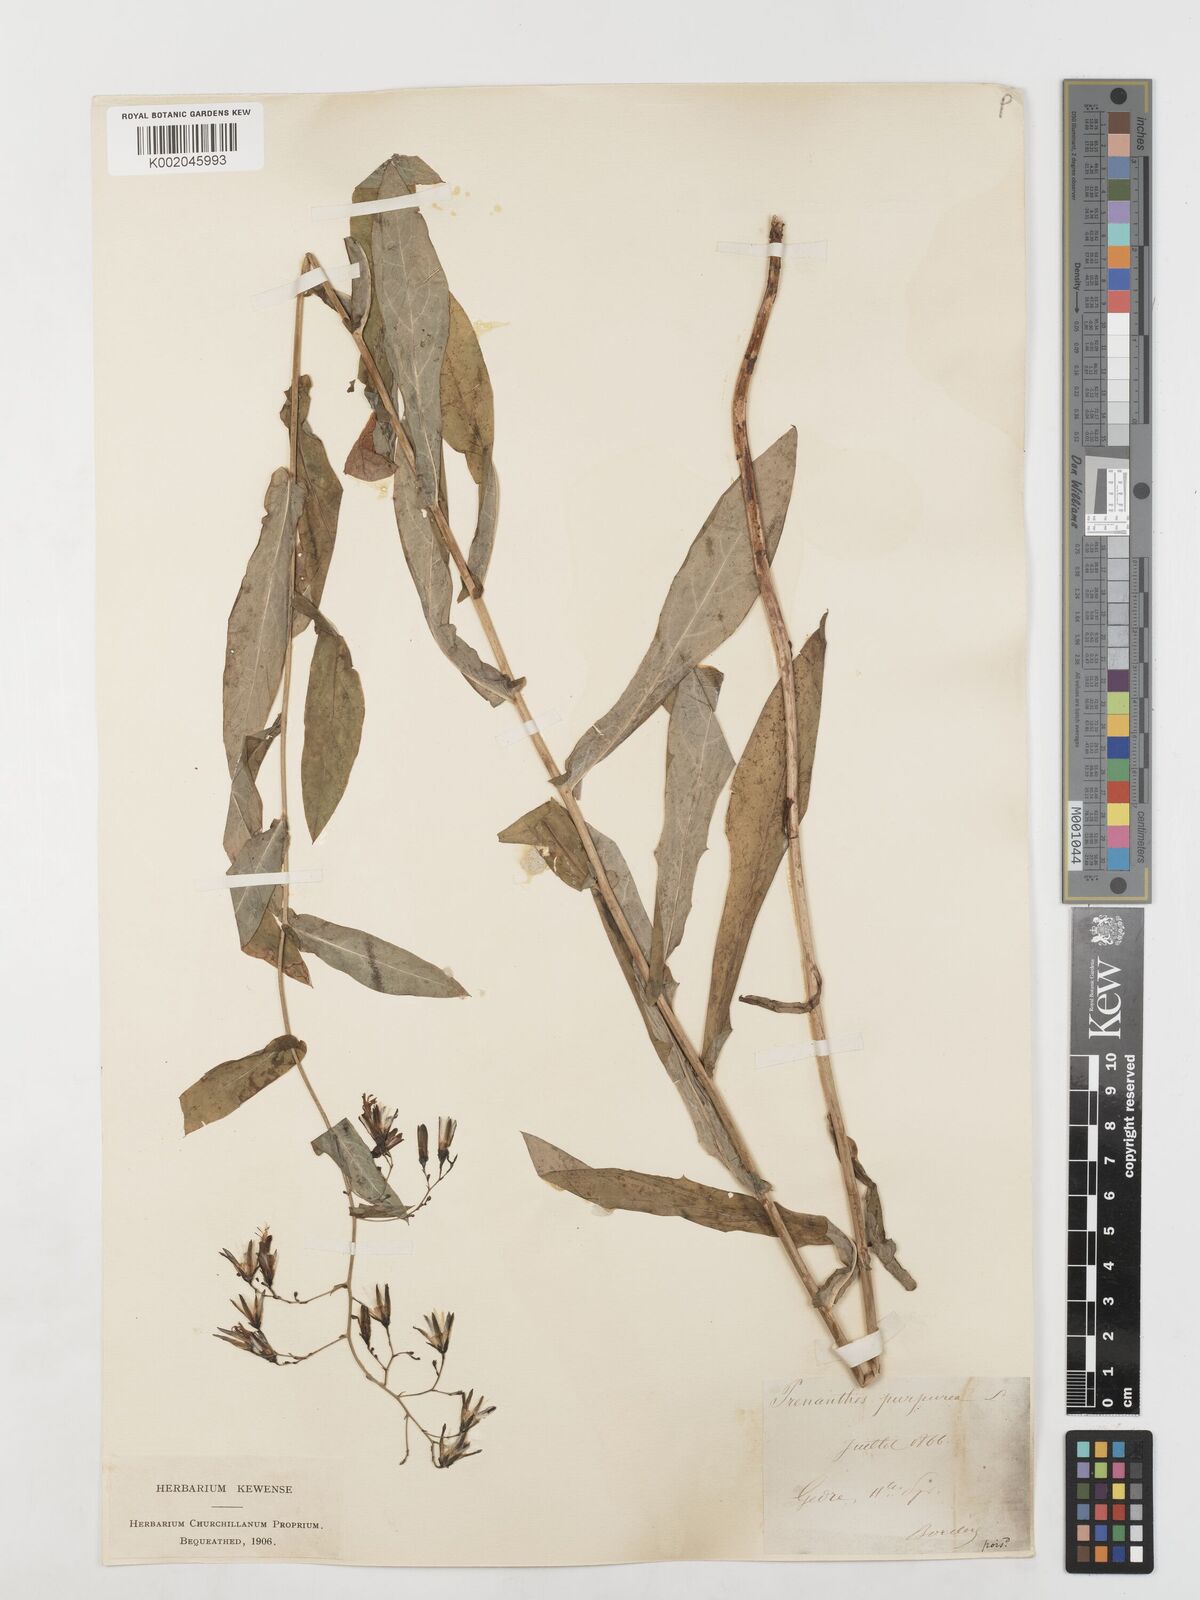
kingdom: Plantae
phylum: Tracheophyta
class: Magnoliopsida
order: Asterales
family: Asteraceae
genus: Prenanthes
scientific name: Prenanthes purpurea
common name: Purple lettuce
